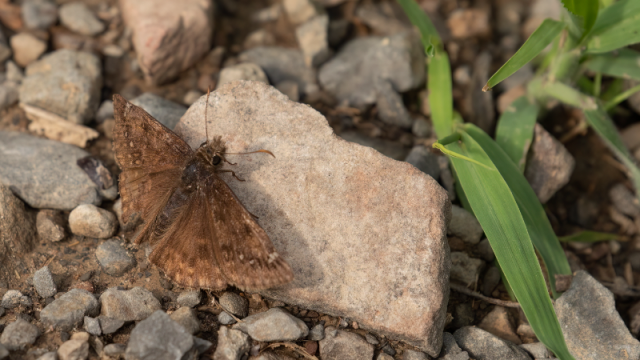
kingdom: Animalia
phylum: Arthropoda
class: Insecta
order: Lepidoptera
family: Hesperiidae
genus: Erynnis
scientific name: Erynnis brizo
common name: Sleepy Duskywing
